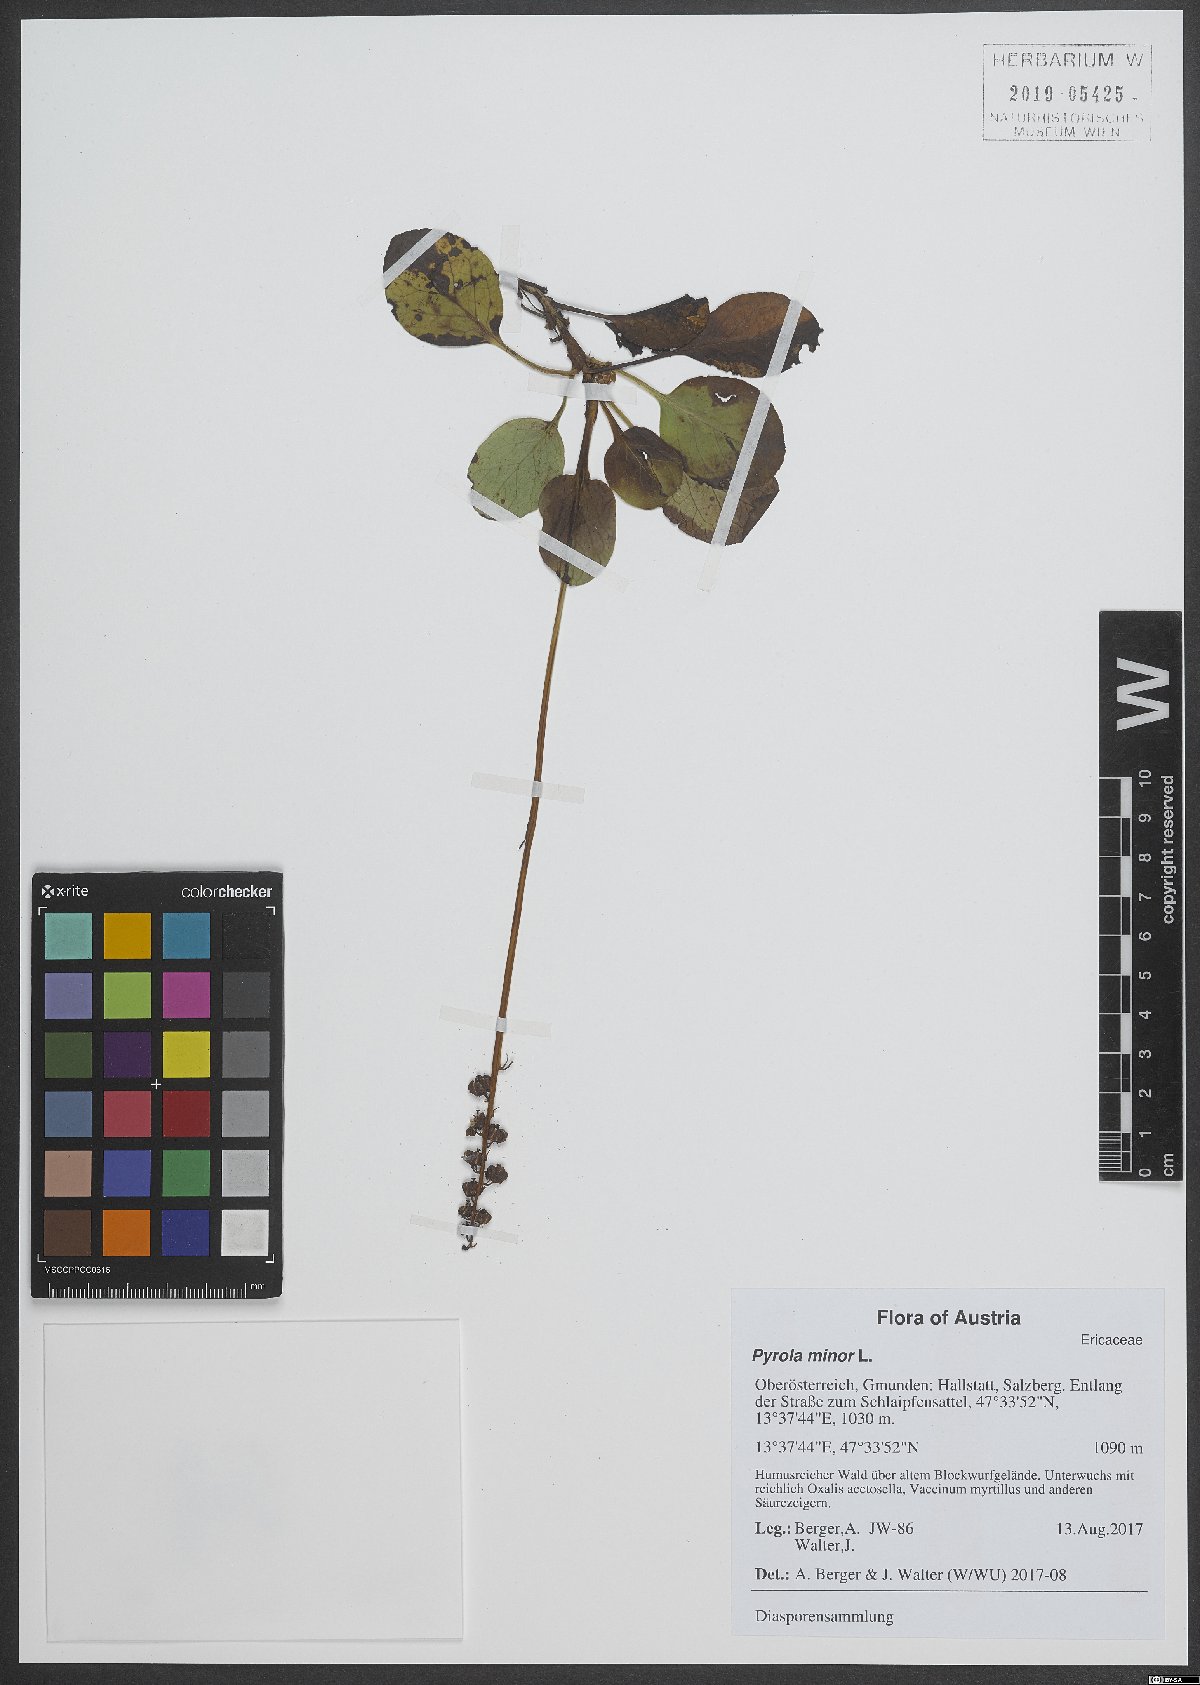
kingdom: Plantae
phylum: Tracheophyta
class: Magnoliopsida
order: Ericales
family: Ericaceae
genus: Pyrola
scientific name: Pyrola minor
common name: Common wintergreen
